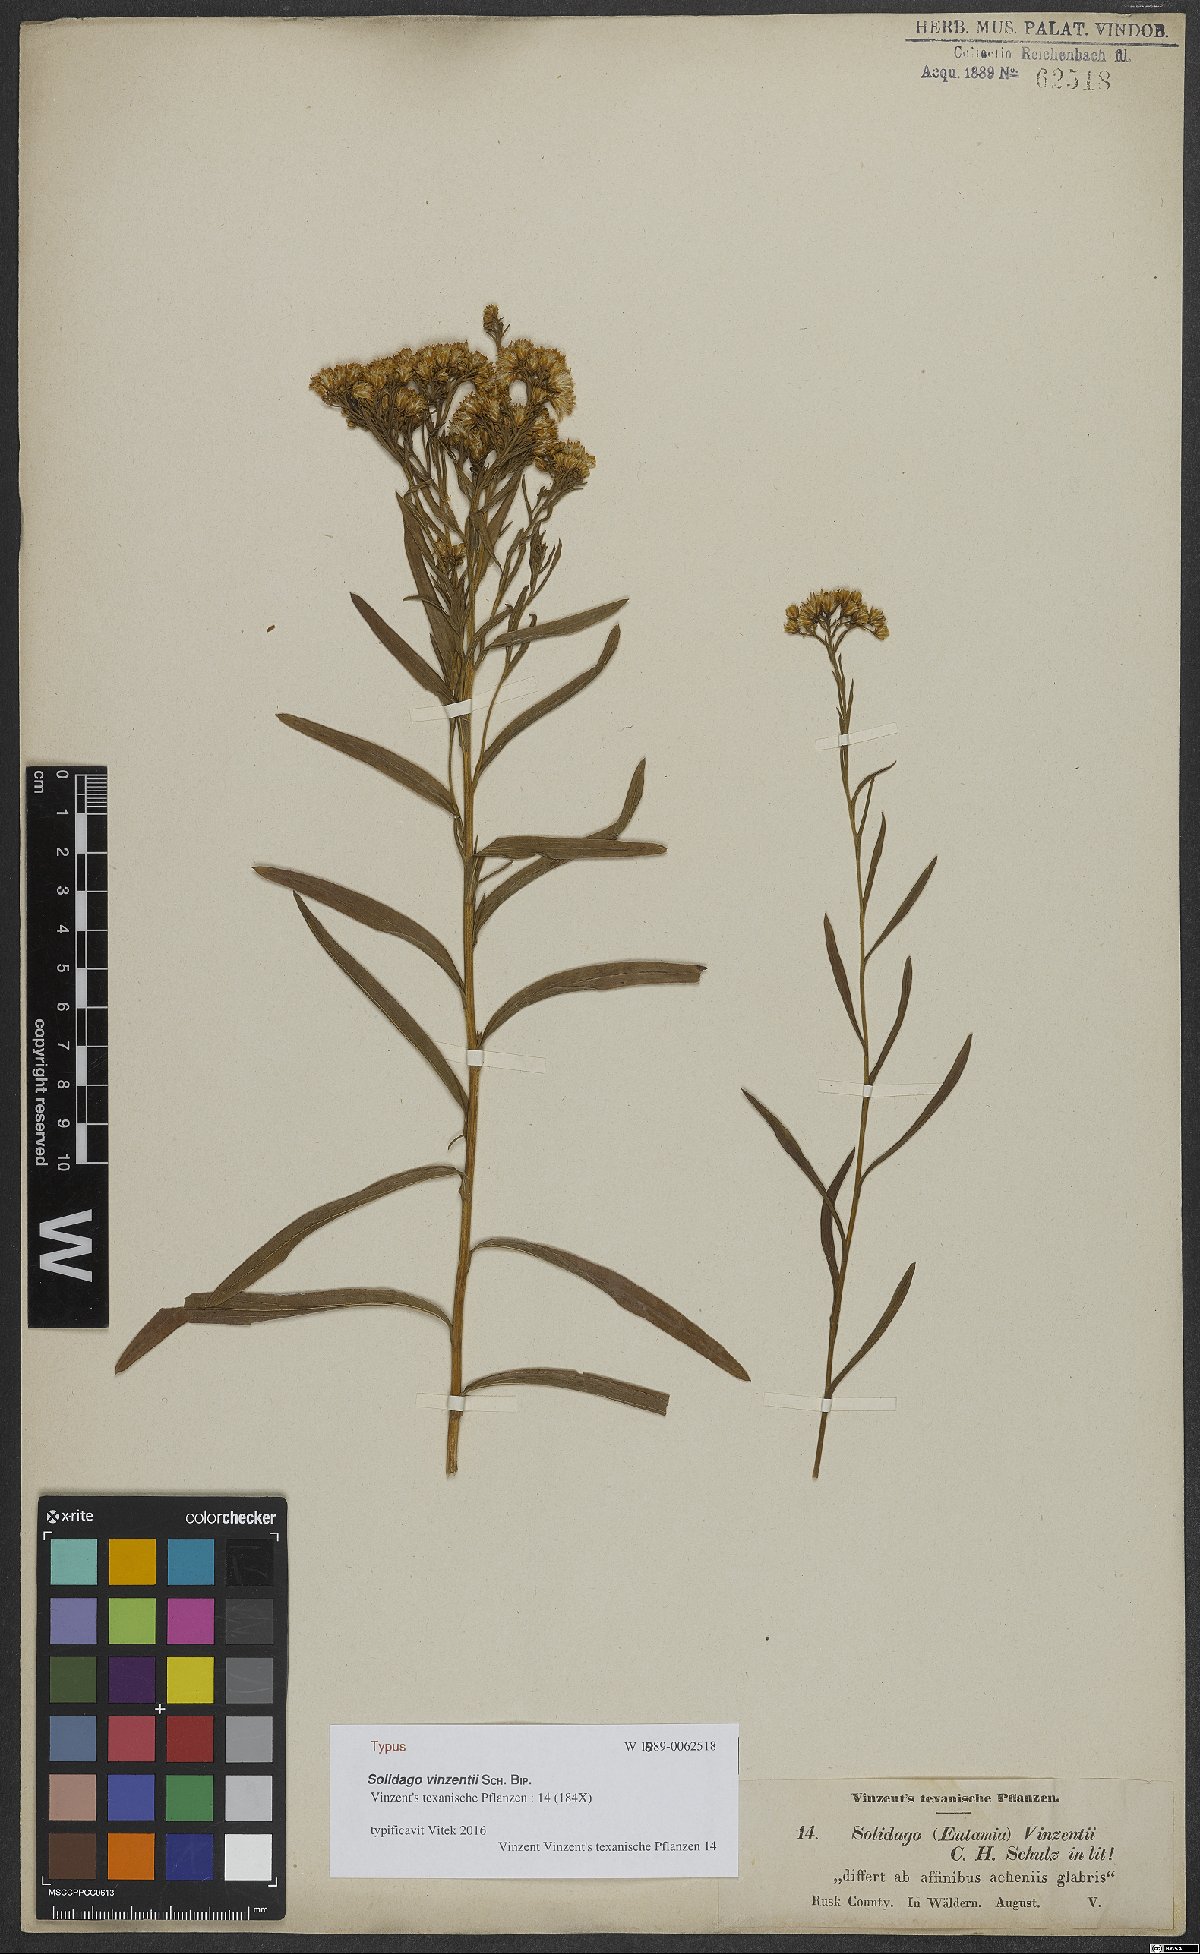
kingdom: Plantae
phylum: Tracheophyta
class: Magnoliopsida
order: Asterales
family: Asteraceae
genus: Solidago
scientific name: Solidago vinzentii
